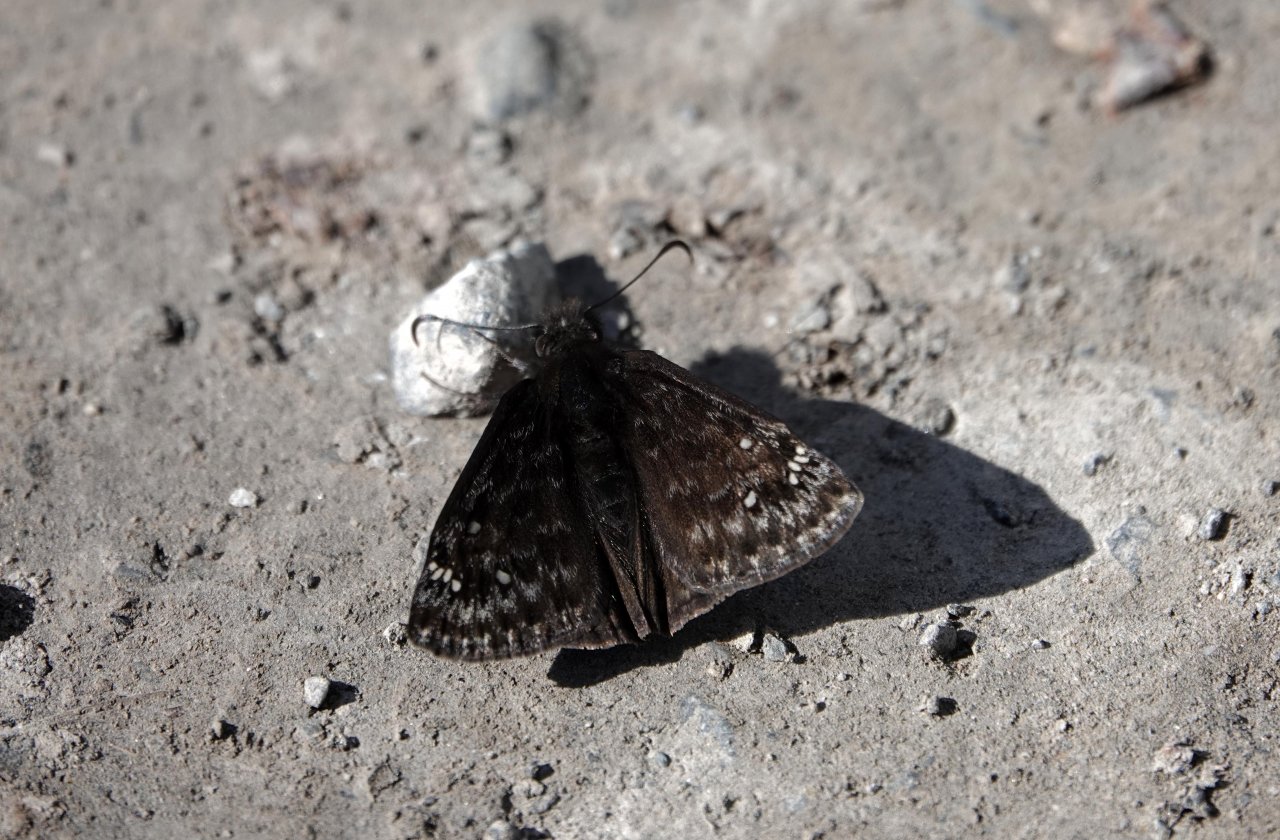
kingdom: Animalia
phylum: Arthropoda
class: Insecta
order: Lepidoptera
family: Hesperiidae
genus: Erynnis
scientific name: Erynnis
